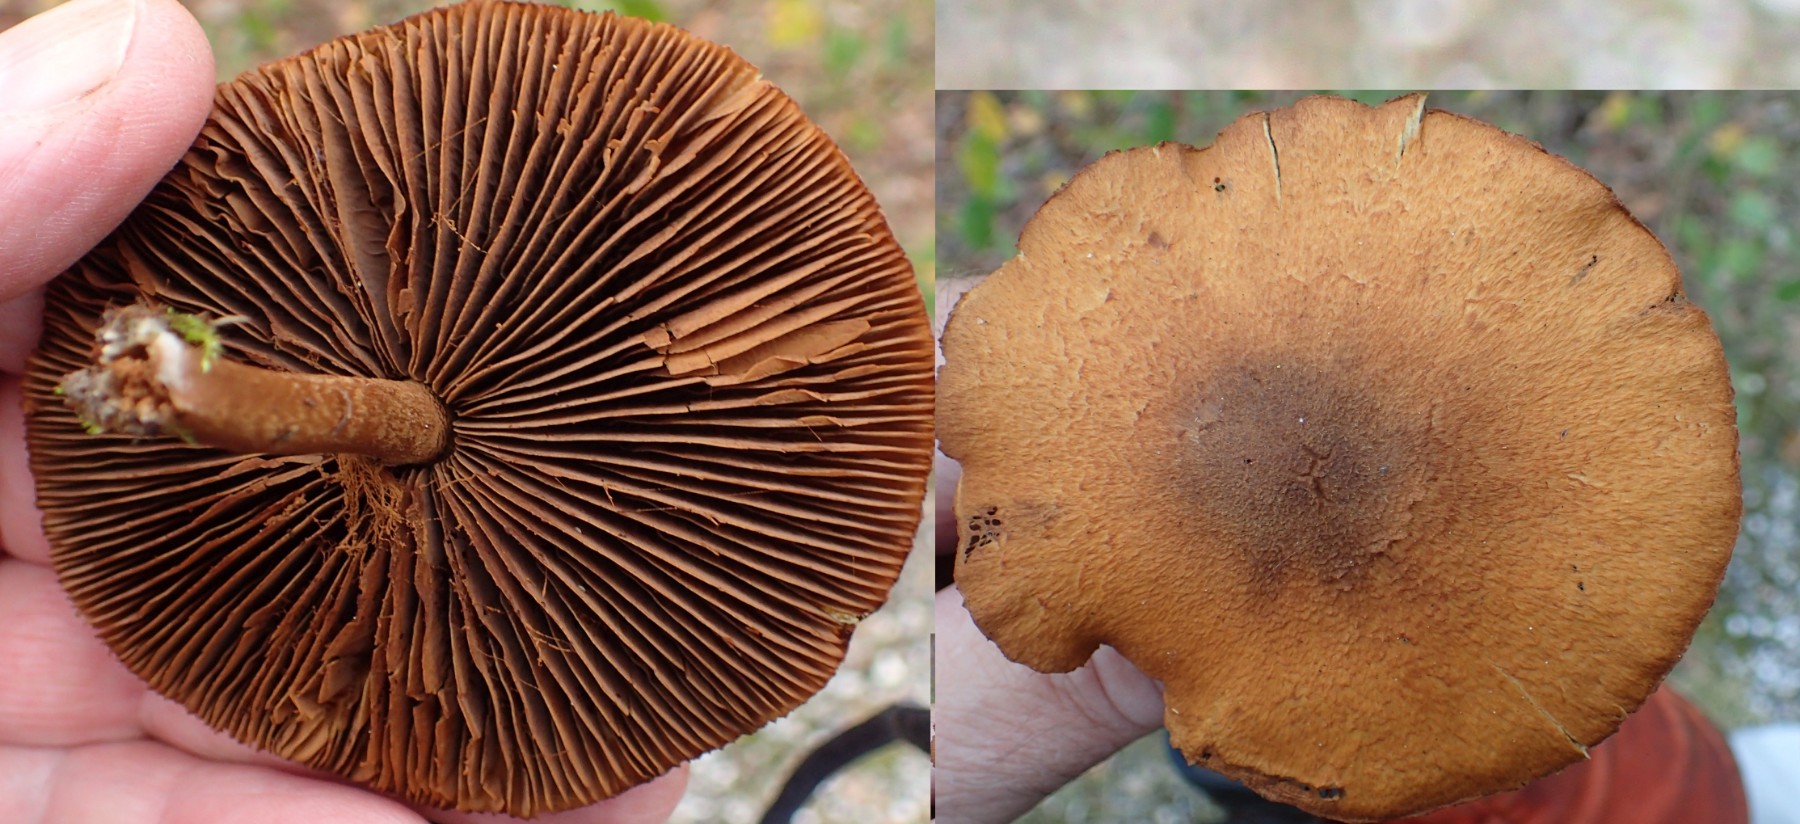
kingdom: Fungi
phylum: Basidiomycota
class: Agaricomycetes
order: Agaricales
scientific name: Agaricales
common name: champignonordenen
